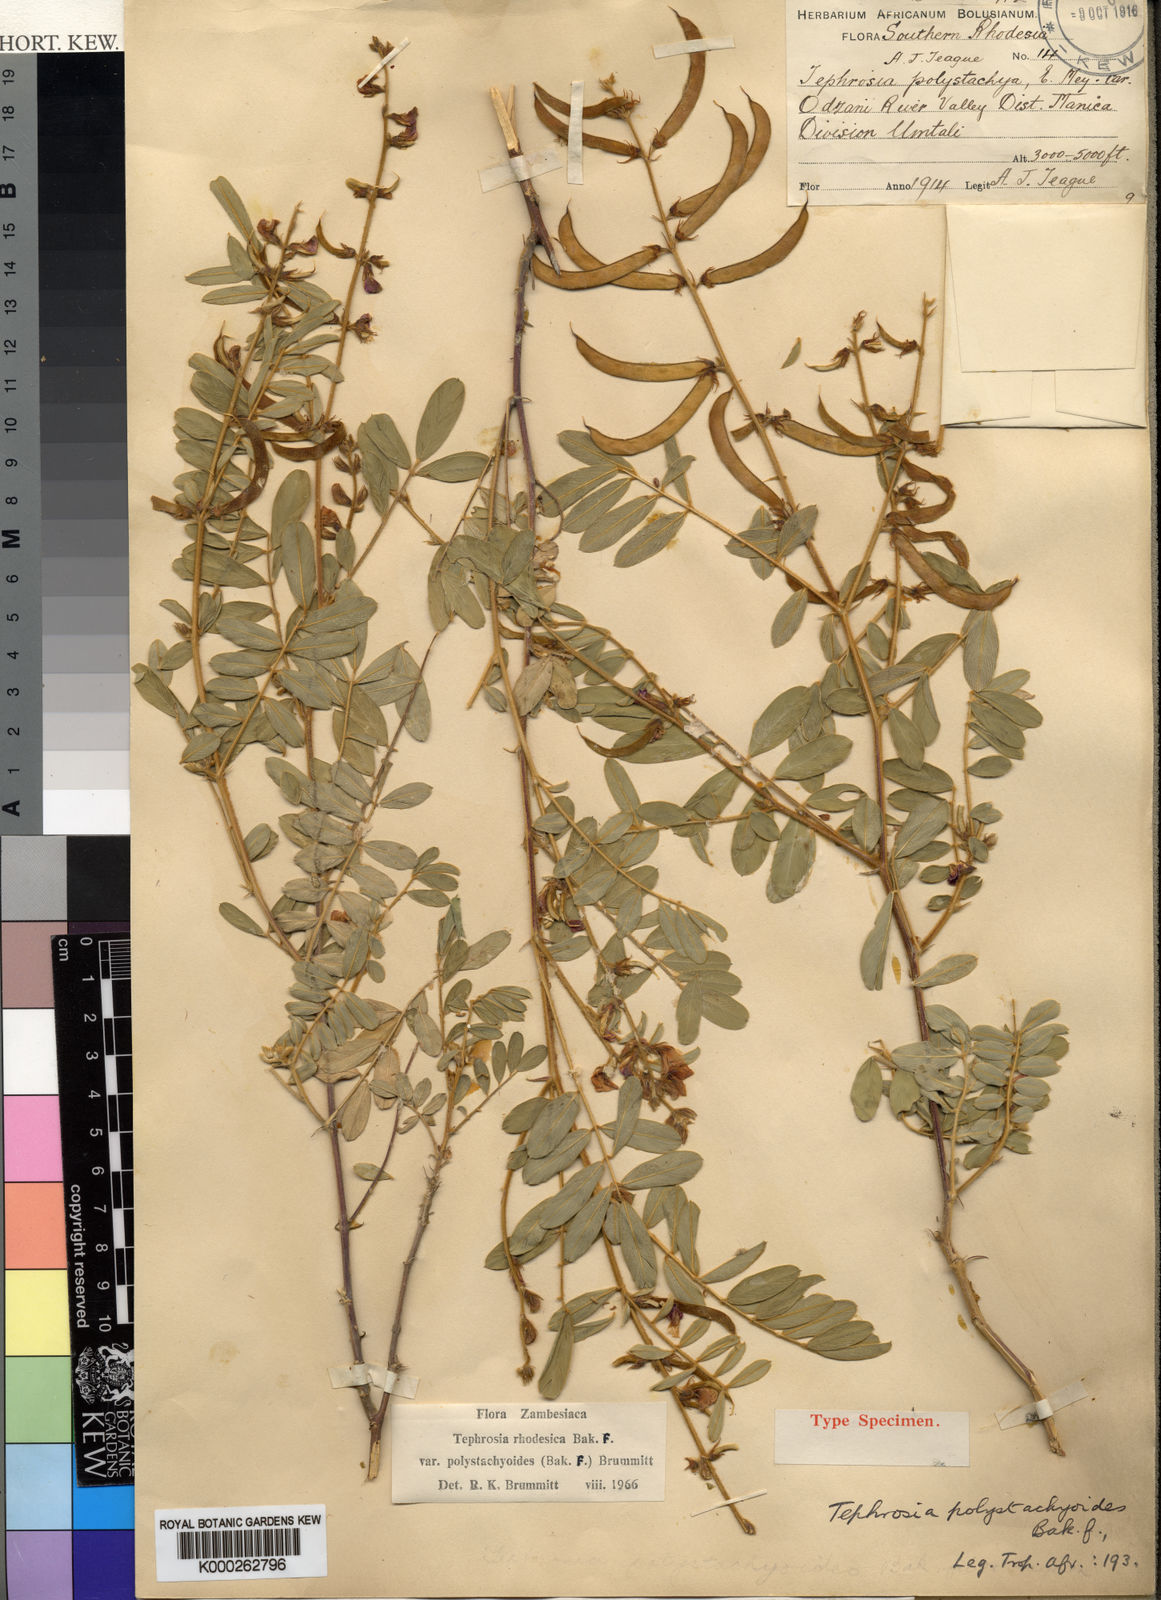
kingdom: Plantae
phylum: Tracheophyta
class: Magnoliopsida
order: Fabales
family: Fabaceae
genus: Tephrosia
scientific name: Tephrosia rhodesica
